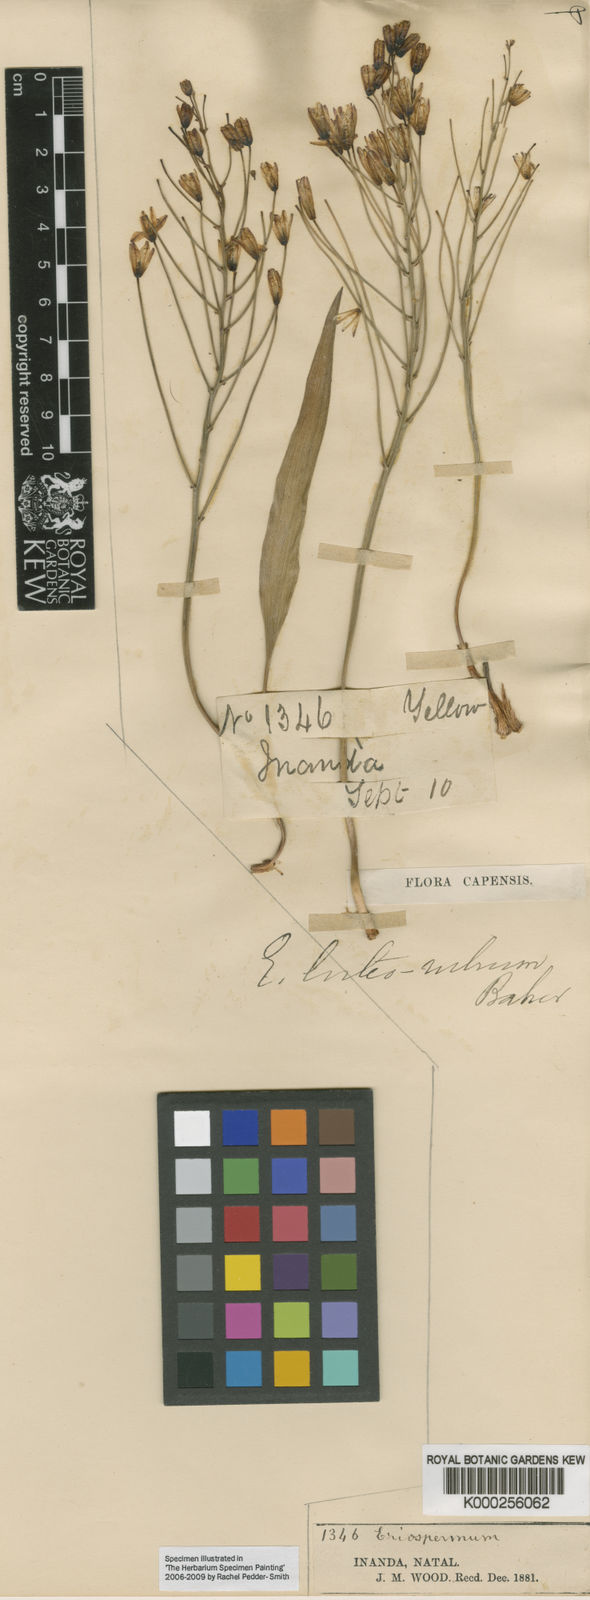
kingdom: Plantae
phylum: Tracheophyta
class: Liliopsida
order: Asparagales
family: Asparagaceae
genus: Eriospermum
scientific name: Eriospermum abyssinicum
